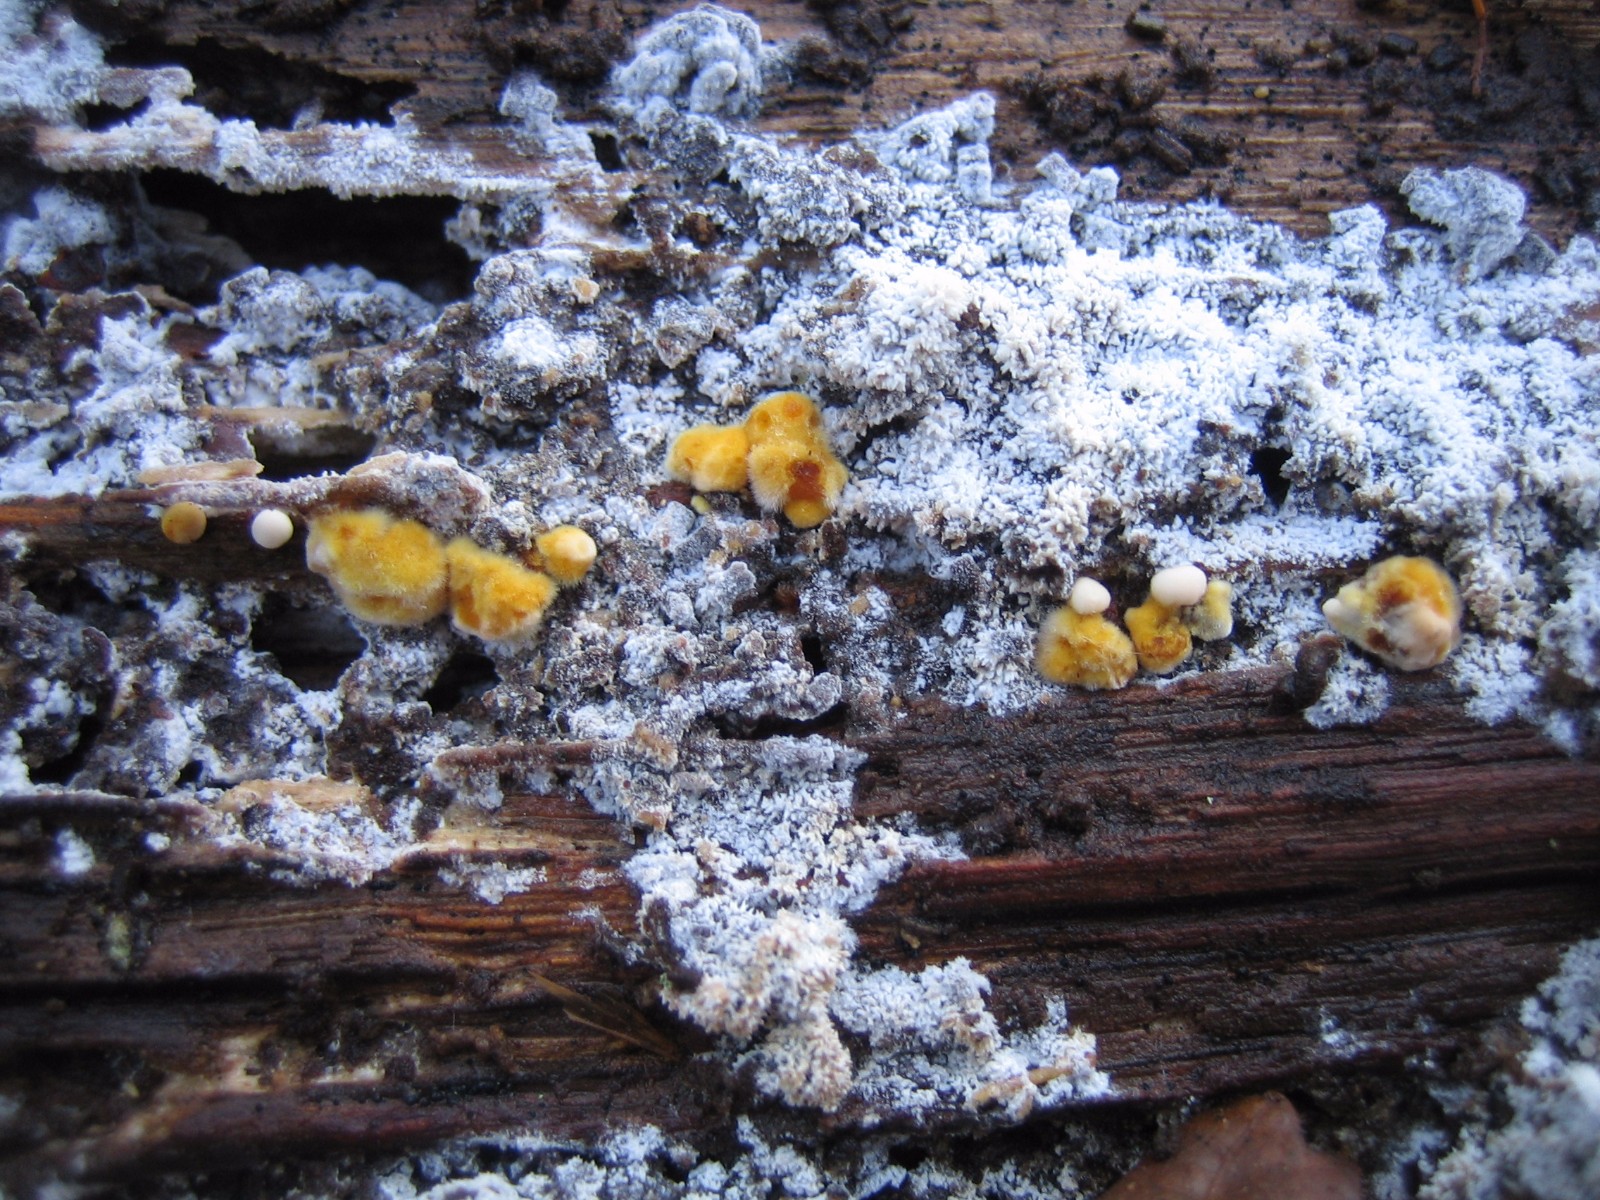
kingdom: Fungi
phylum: Basidiomycota
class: Agaricomycetes
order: Cantharellales
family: Botryobasidiaceae
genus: Botryobasidium
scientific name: Botryobasidium aureum
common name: gylden spindhinde
